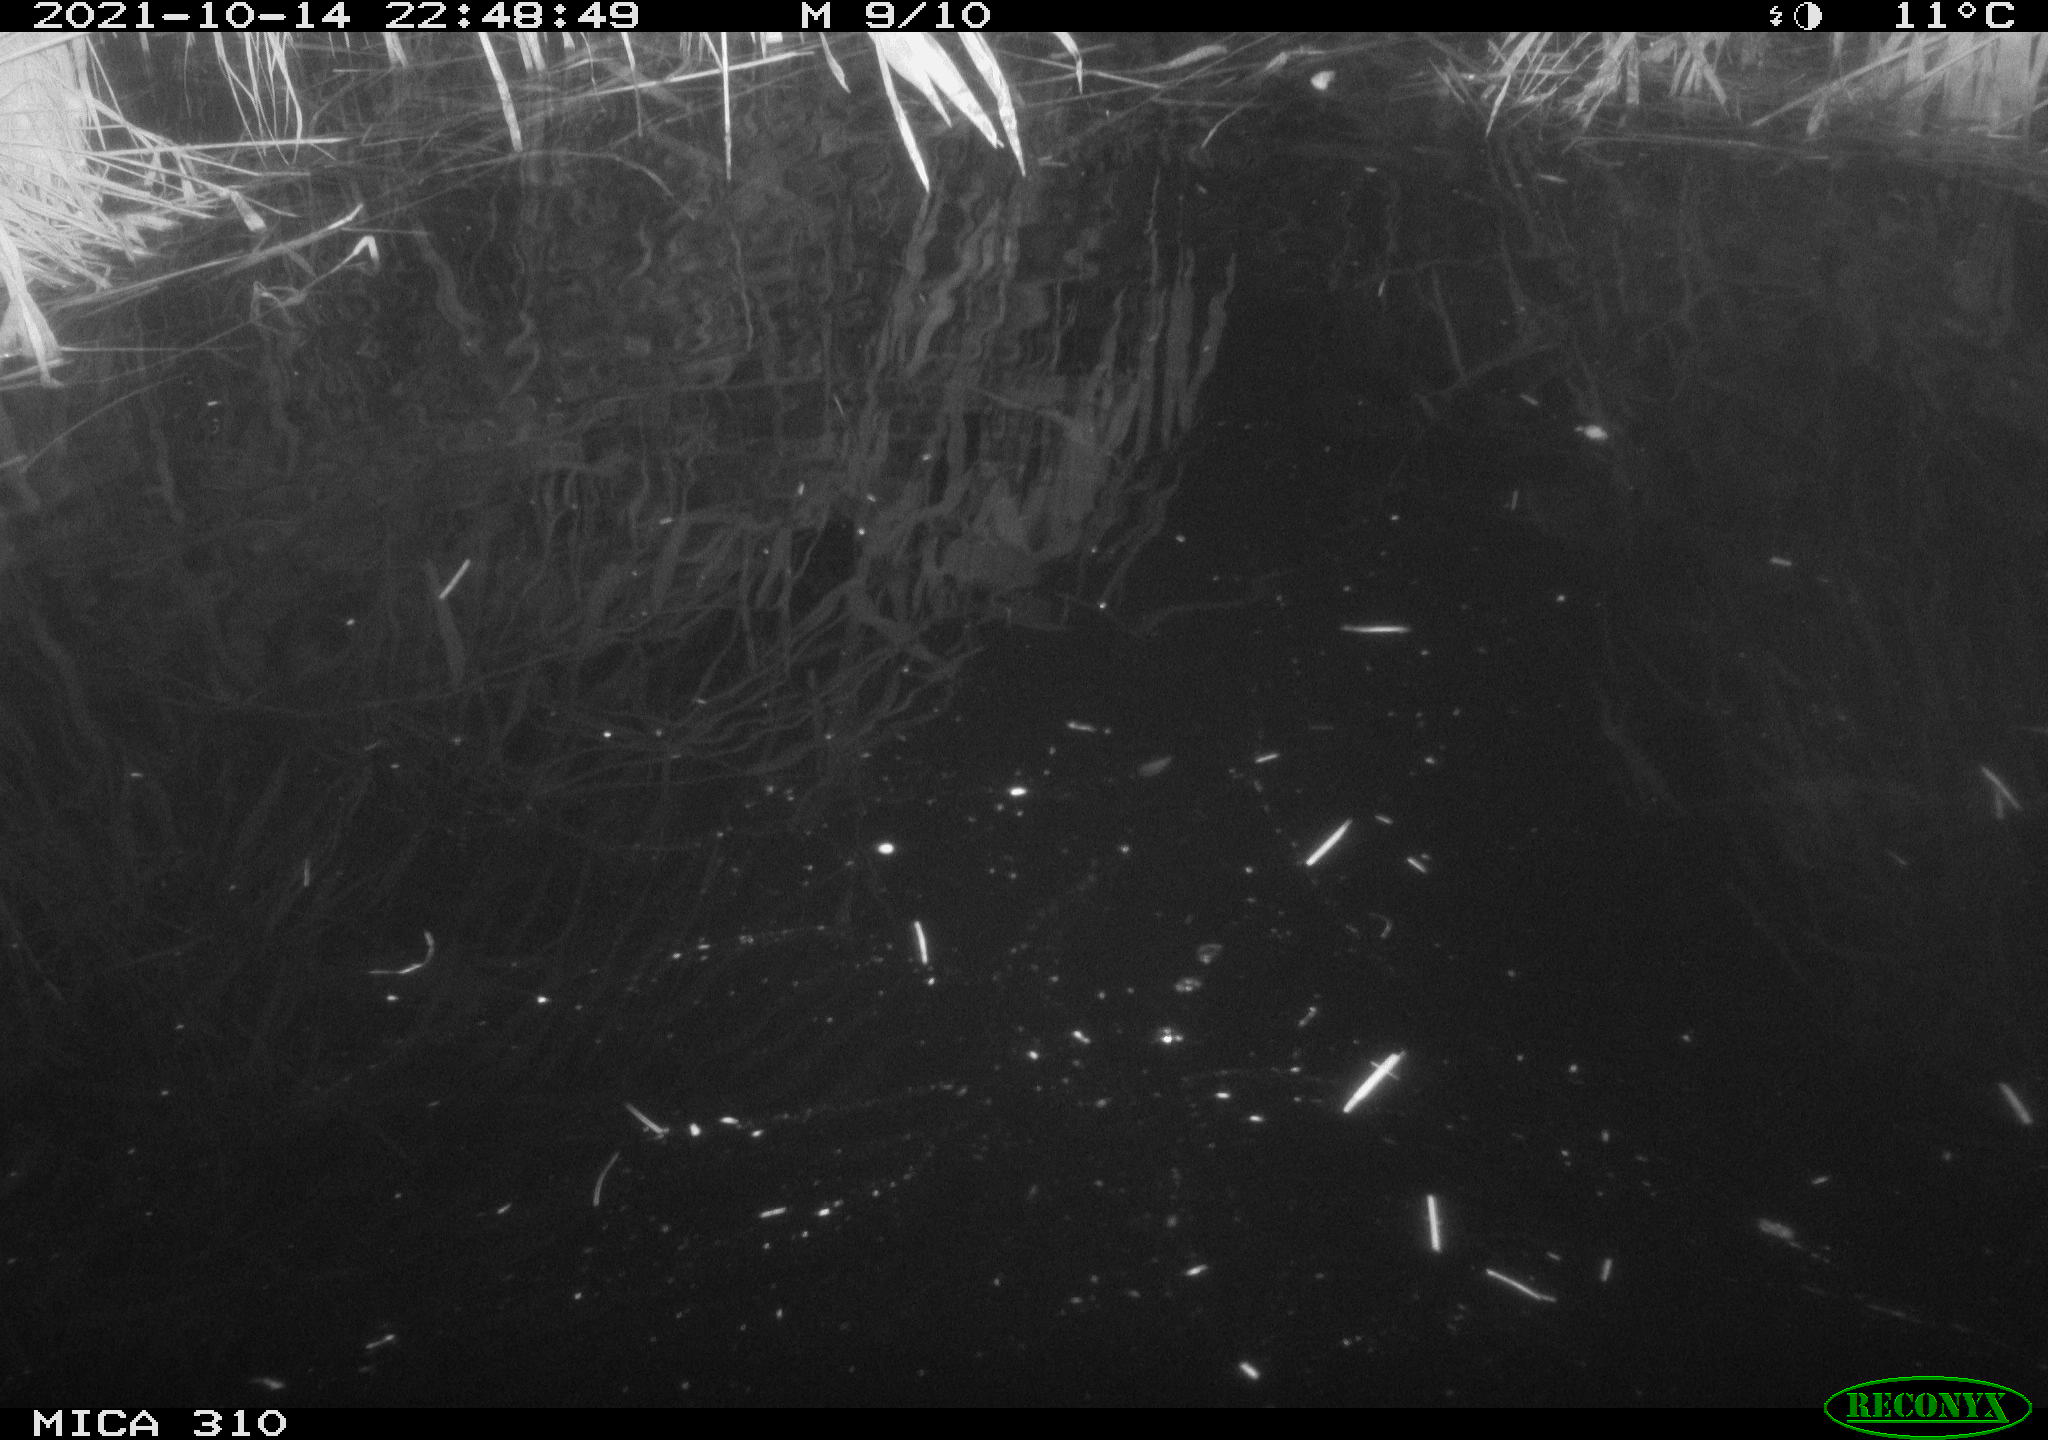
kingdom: Animalia
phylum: Chordata
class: Mammalia
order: Rodentia
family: Muridae
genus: Rattus
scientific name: Rattus norvegicus
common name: Brown rat
